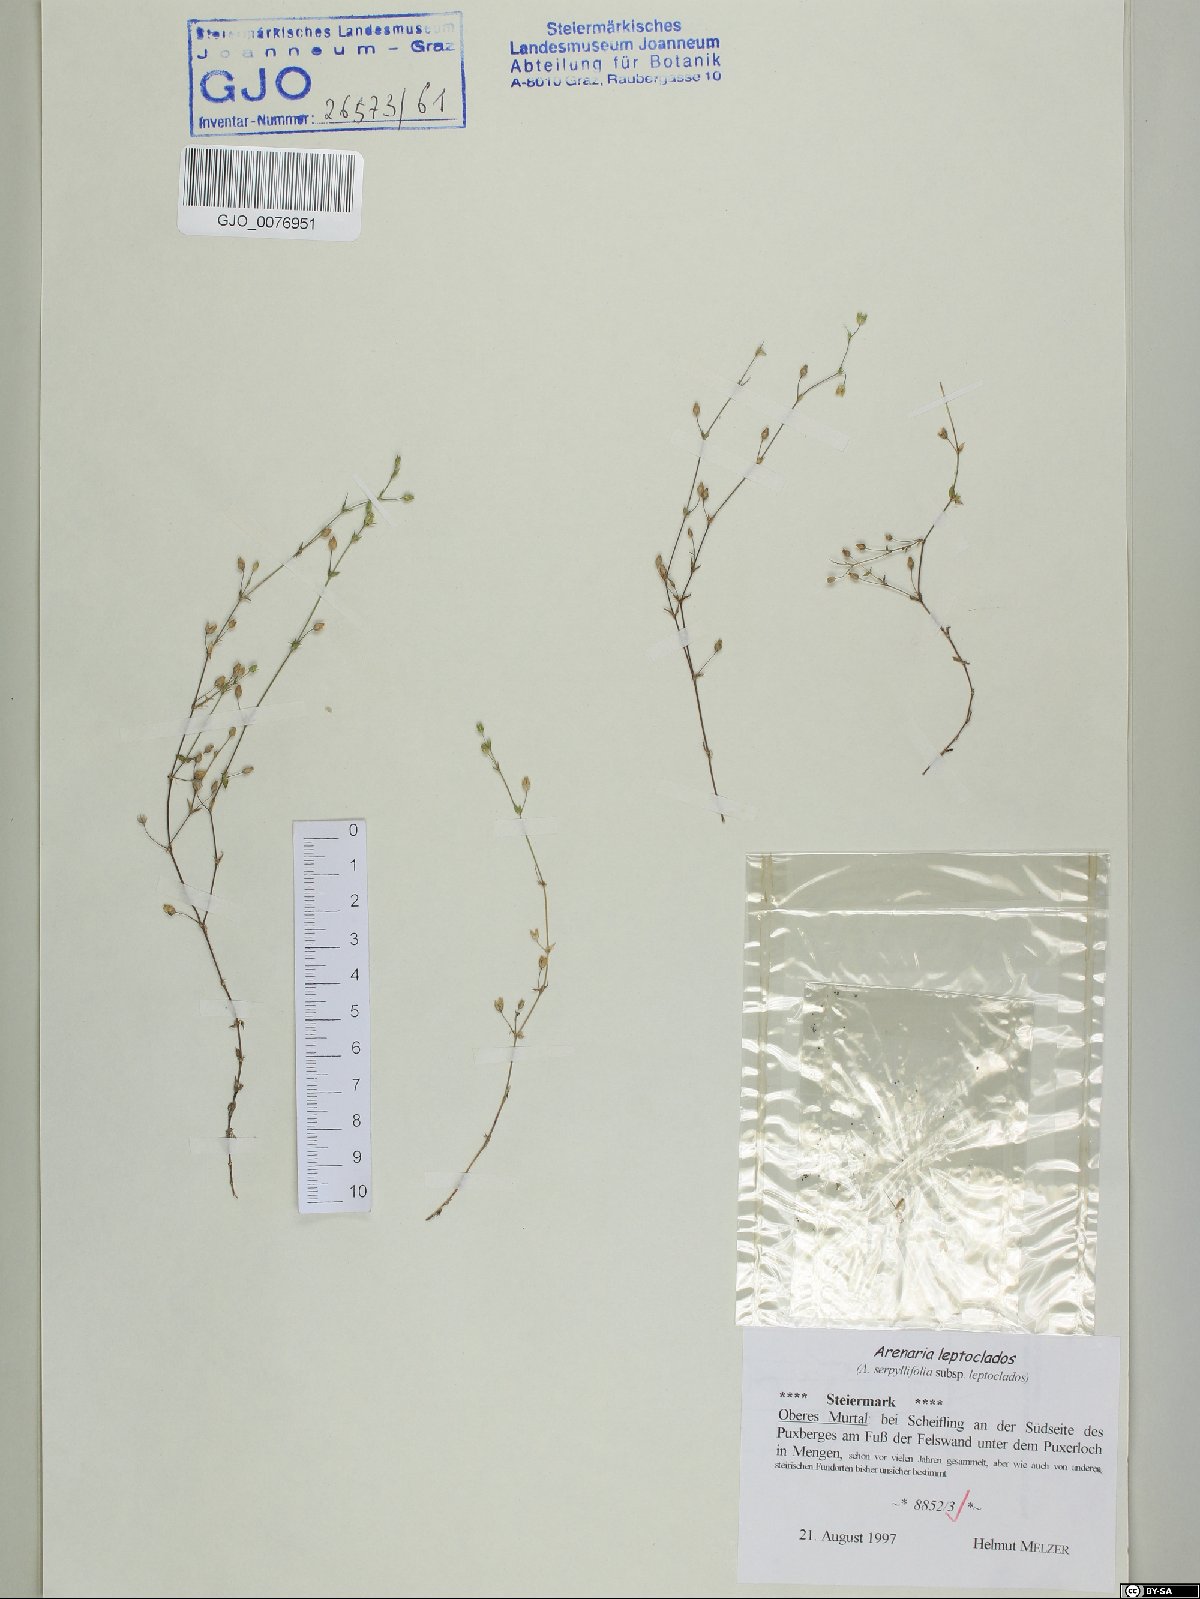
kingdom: Plantae
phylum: Tracheophyta
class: Magnoliopsida
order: Caryophyllales
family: Caryophyllaceae
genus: Arenaria
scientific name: Arenaria leptoclados
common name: Thyme-leaved sandwort
